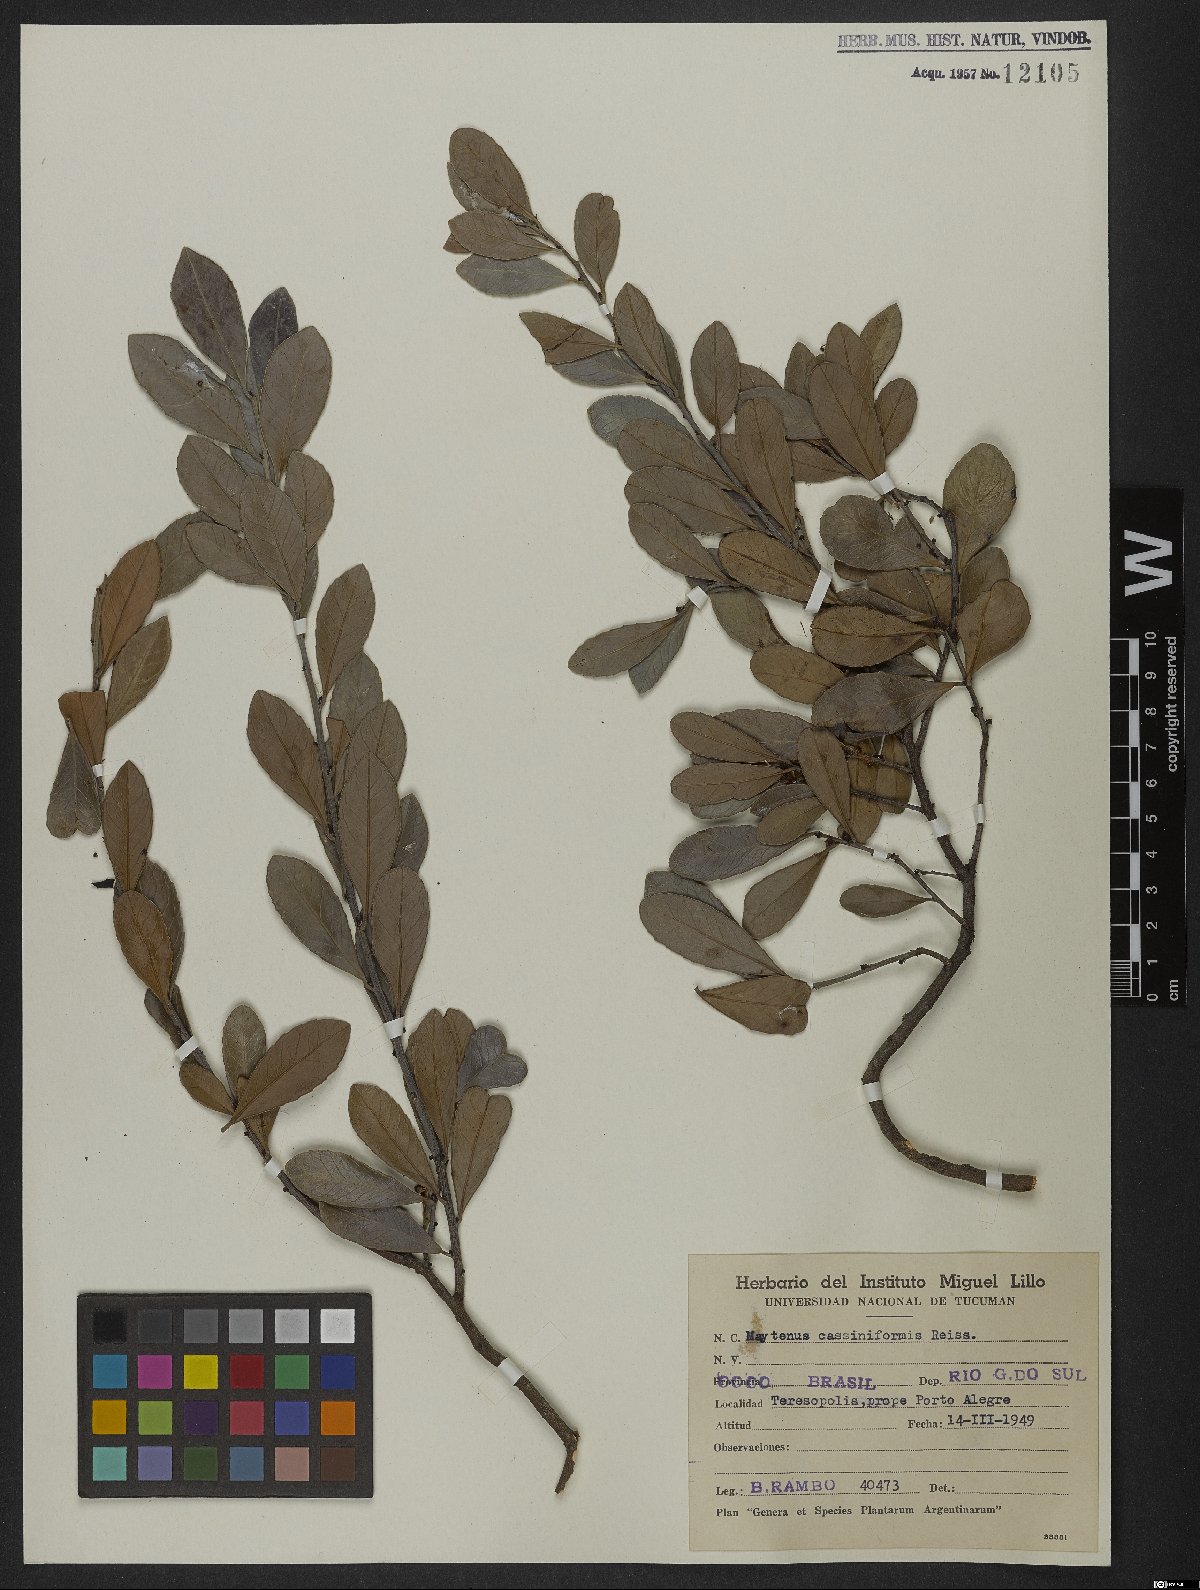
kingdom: Plantae
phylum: Tracheophyta
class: Magnoliopsida
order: Celastrales
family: Celastraceae
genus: Monteverdia
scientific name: Monteverdia cassineformis
